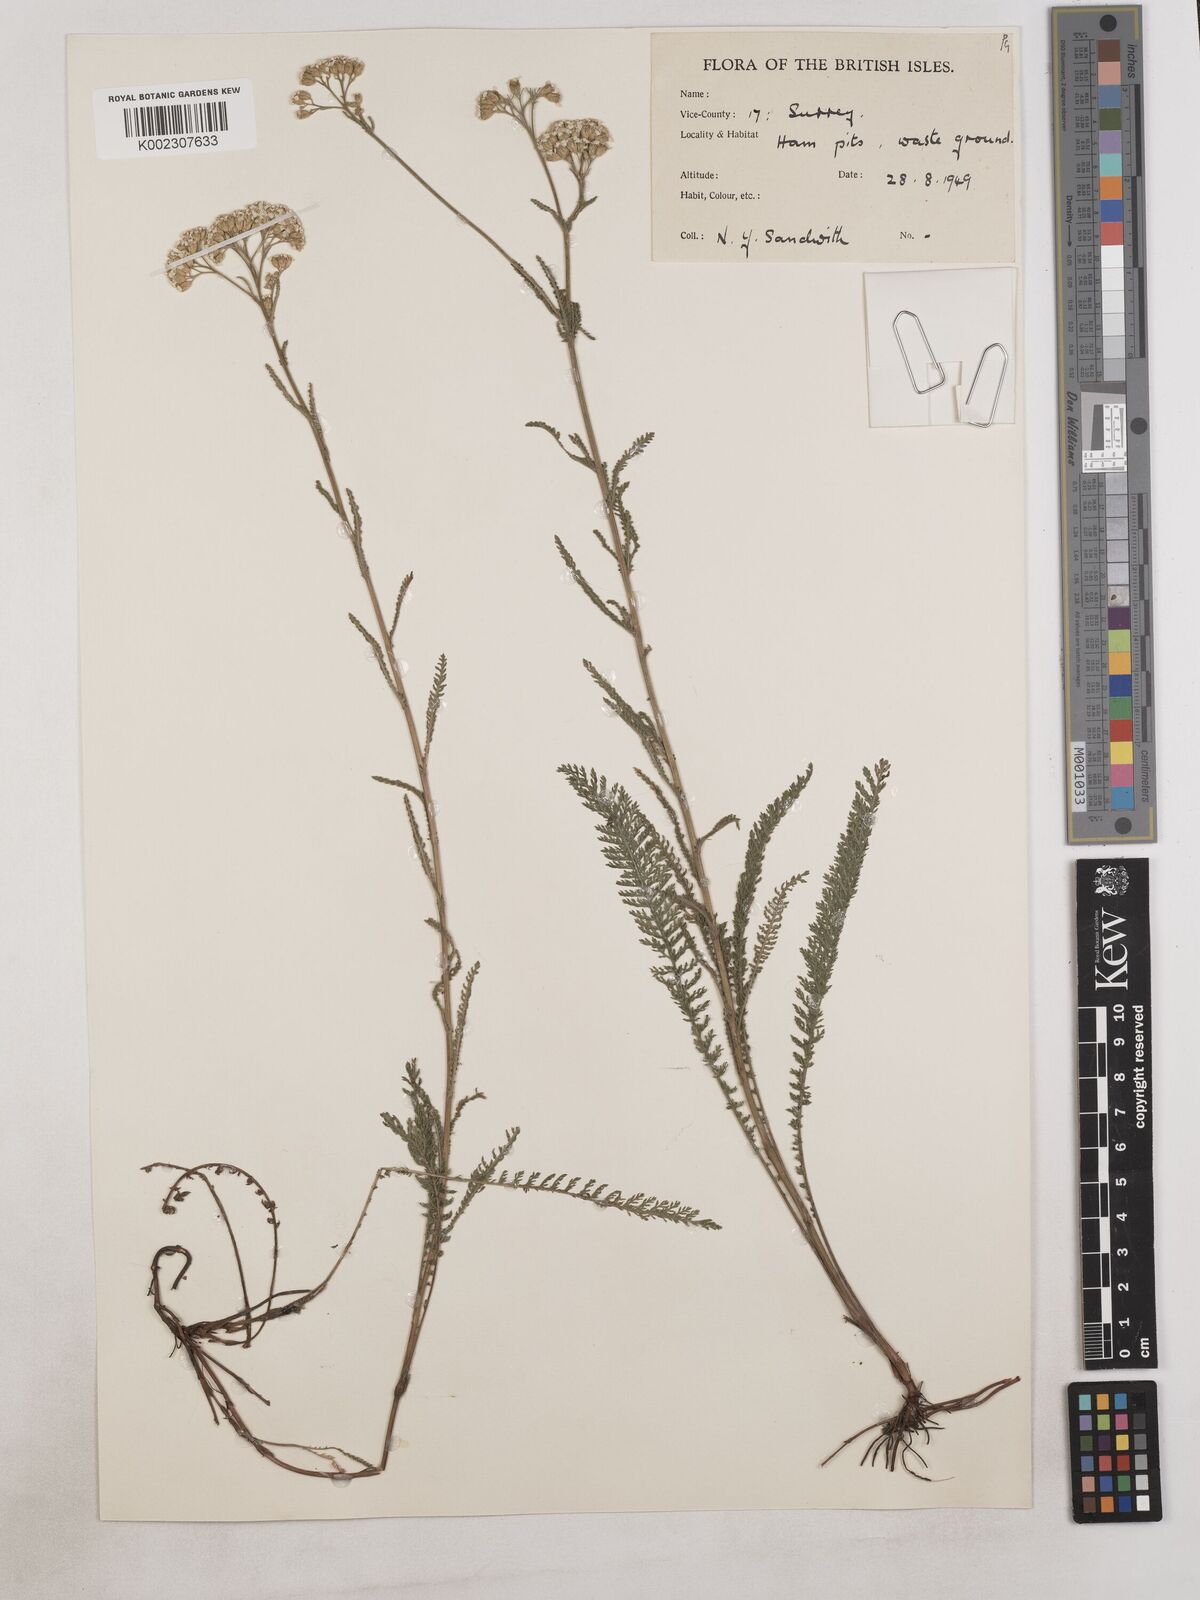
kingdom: Plantae
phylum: Tracheophyta
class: Magnoliopsida
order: Asterales
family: Asteraceae
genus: Achillea
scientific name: Achillea
